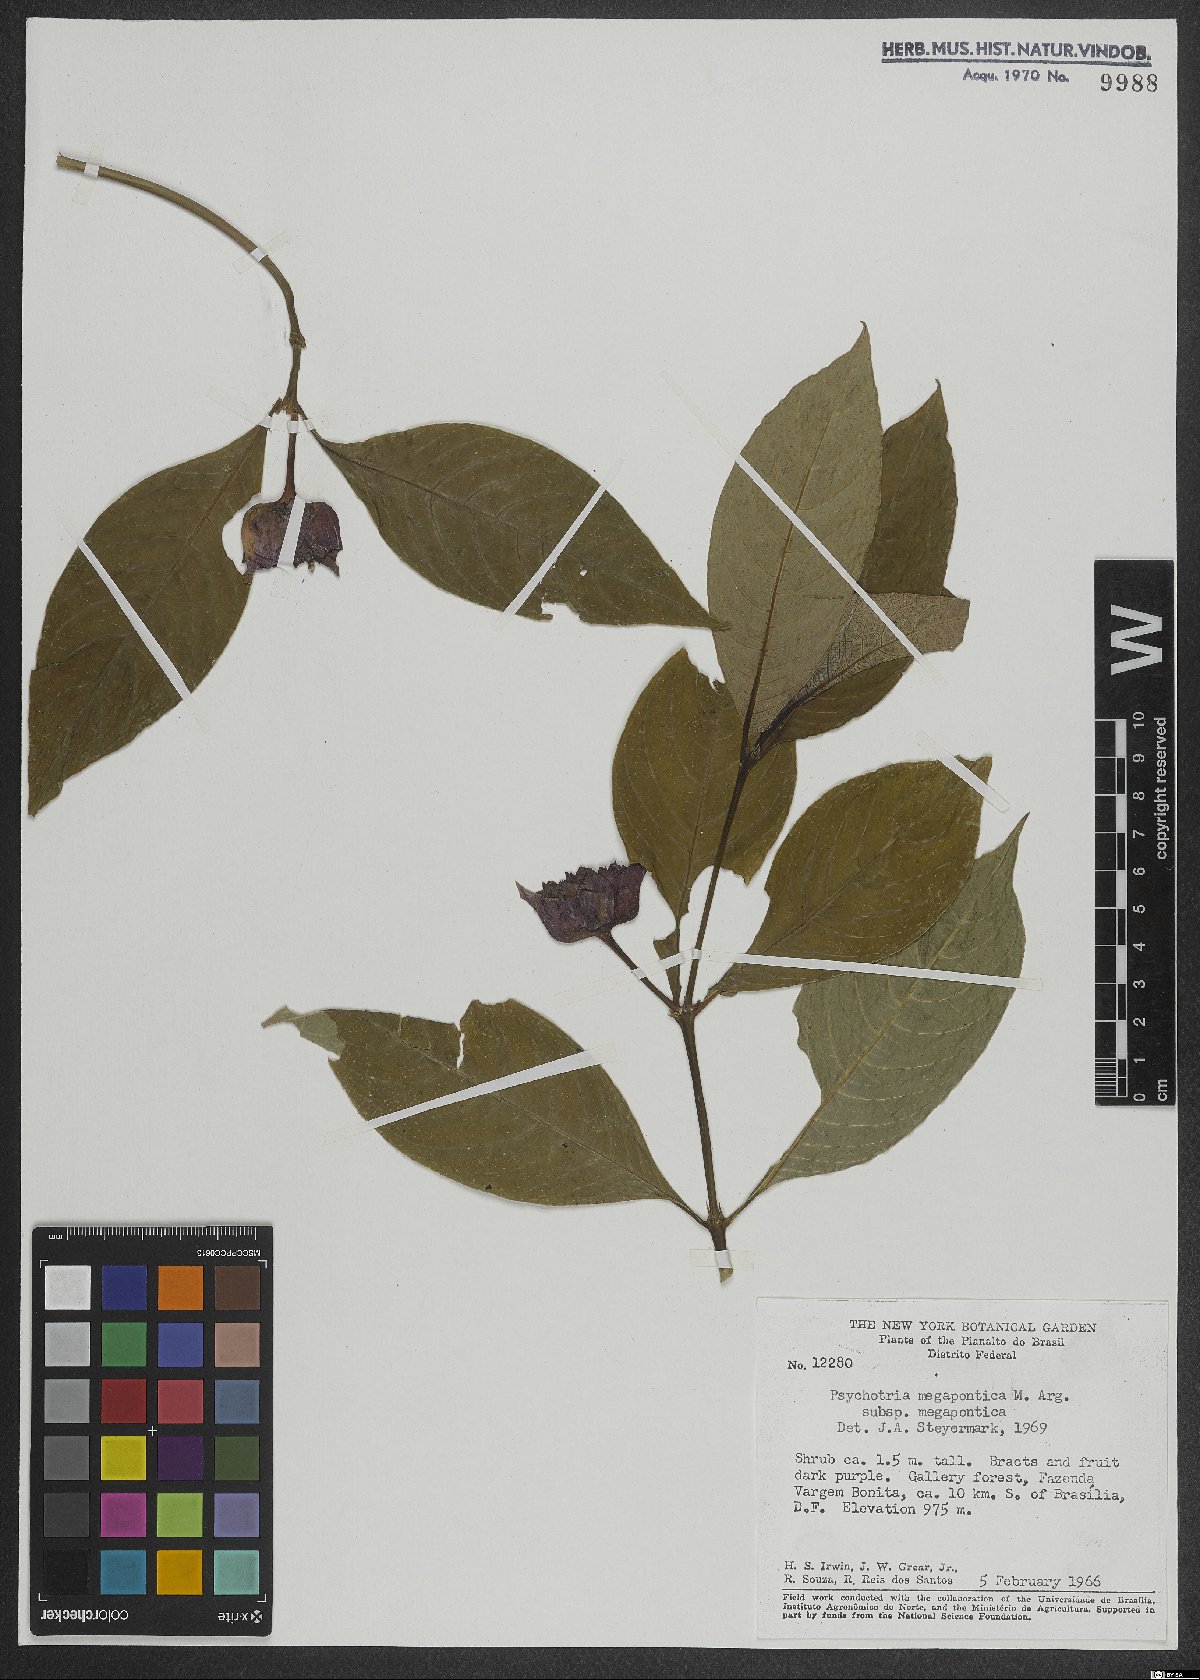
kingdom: Plantae
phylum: Tracheophyta
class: Magnoliopsida
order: Gentianales
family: Rubiaceae
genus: Palicourea
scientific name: Palicourea colorata
